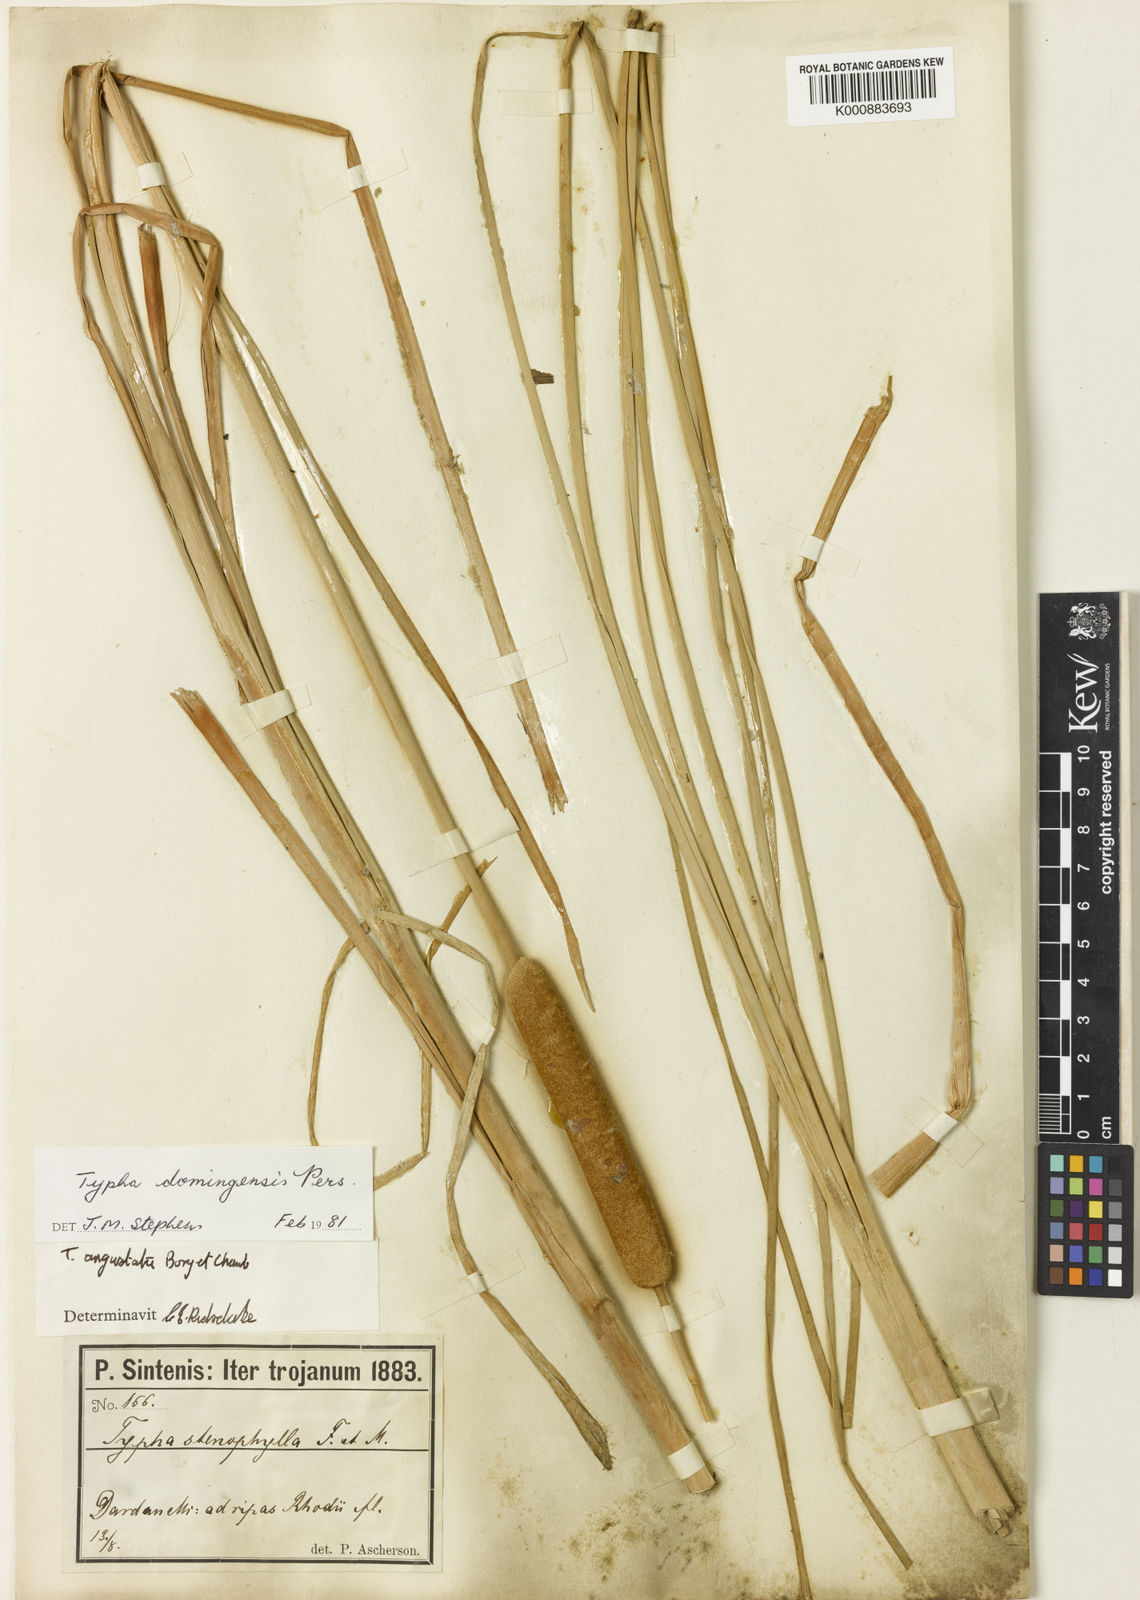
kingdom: Plantae
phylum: Tracheophyta
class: Liliopsida
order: Poales
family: Typhaceae
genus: Typha
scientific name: Typha domingensis
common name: Southern cattail
